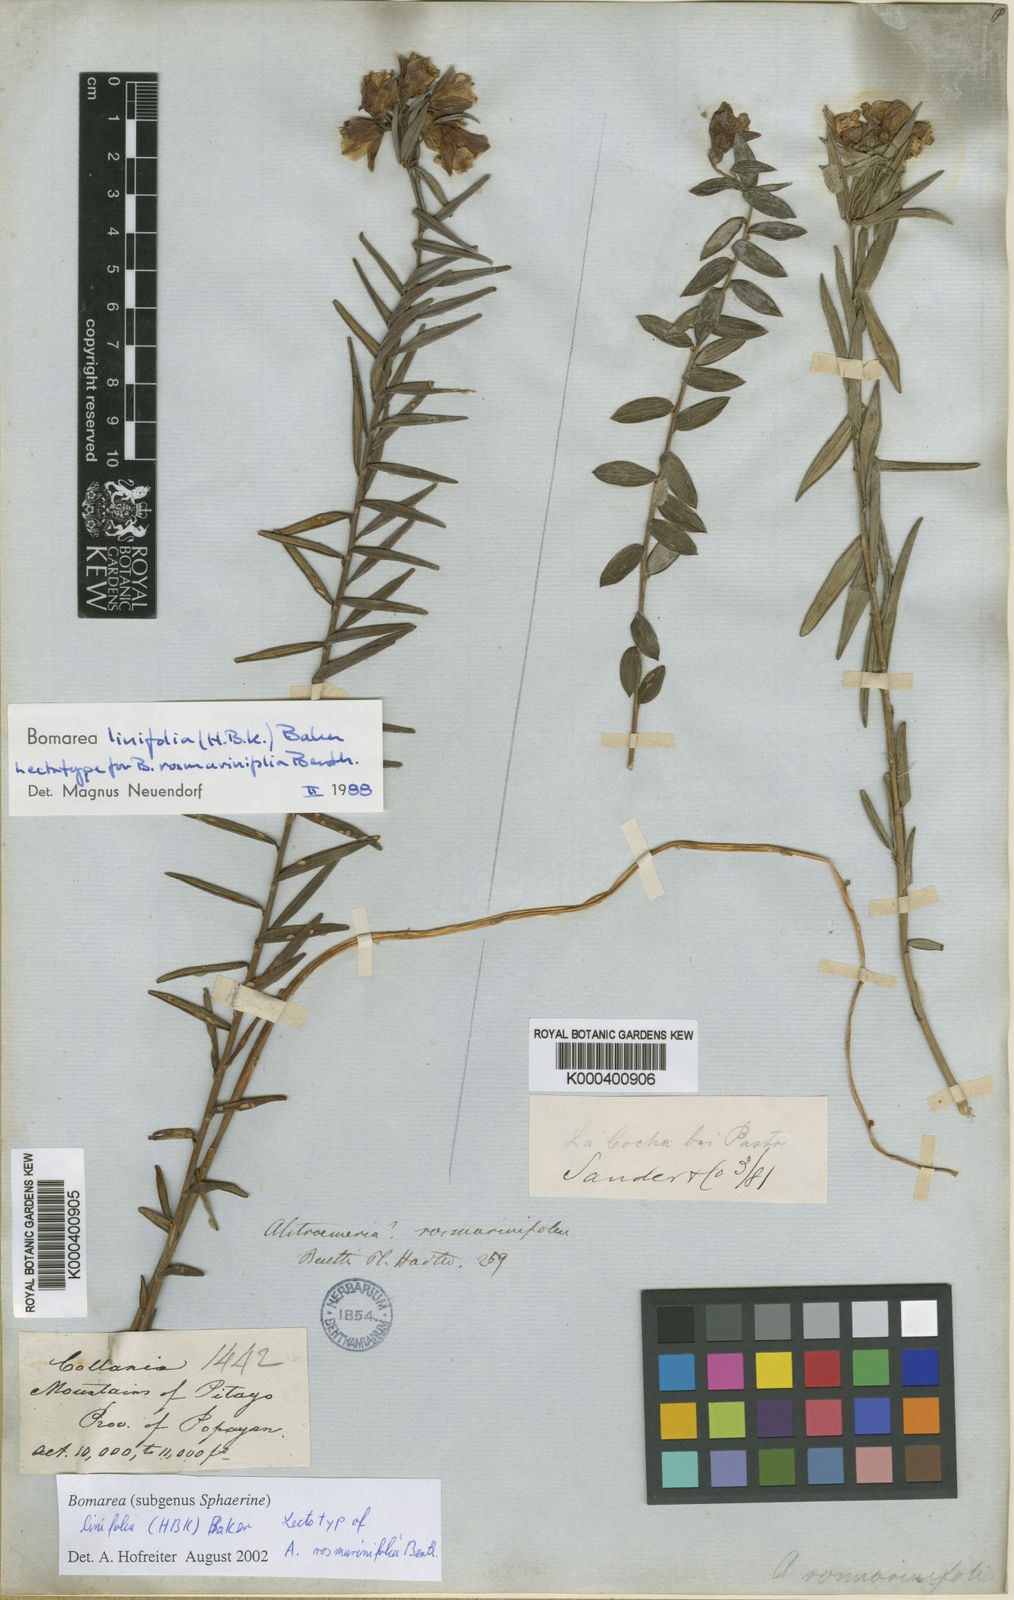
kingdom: Plantae
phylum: Tracheophyta
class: Liliopsida
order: Liliales
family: Alstroemeriaceae
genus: Bomarea
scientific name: Bomarea linifolia
